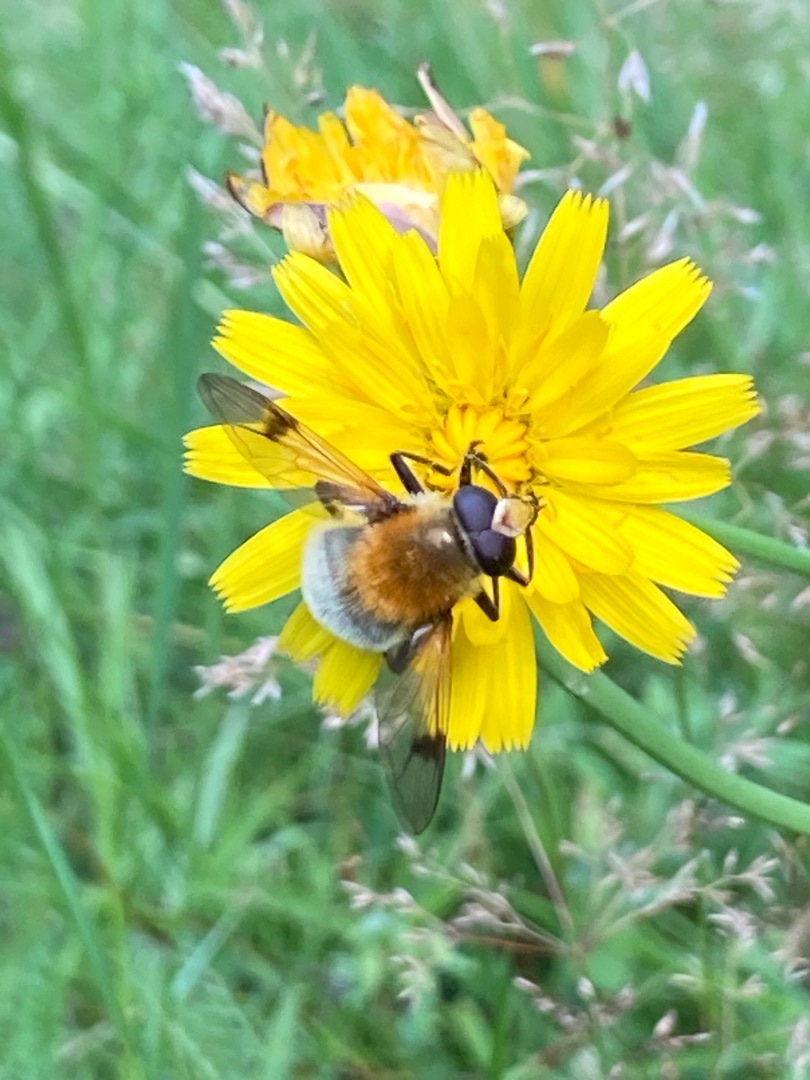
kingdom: Animalia
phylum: Arthropoda
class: Insecta
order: Diptera
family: Syrphidae
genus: Sericomyia
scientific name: Sericomyia superbiens
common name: Brun bjørnesvirreflue
